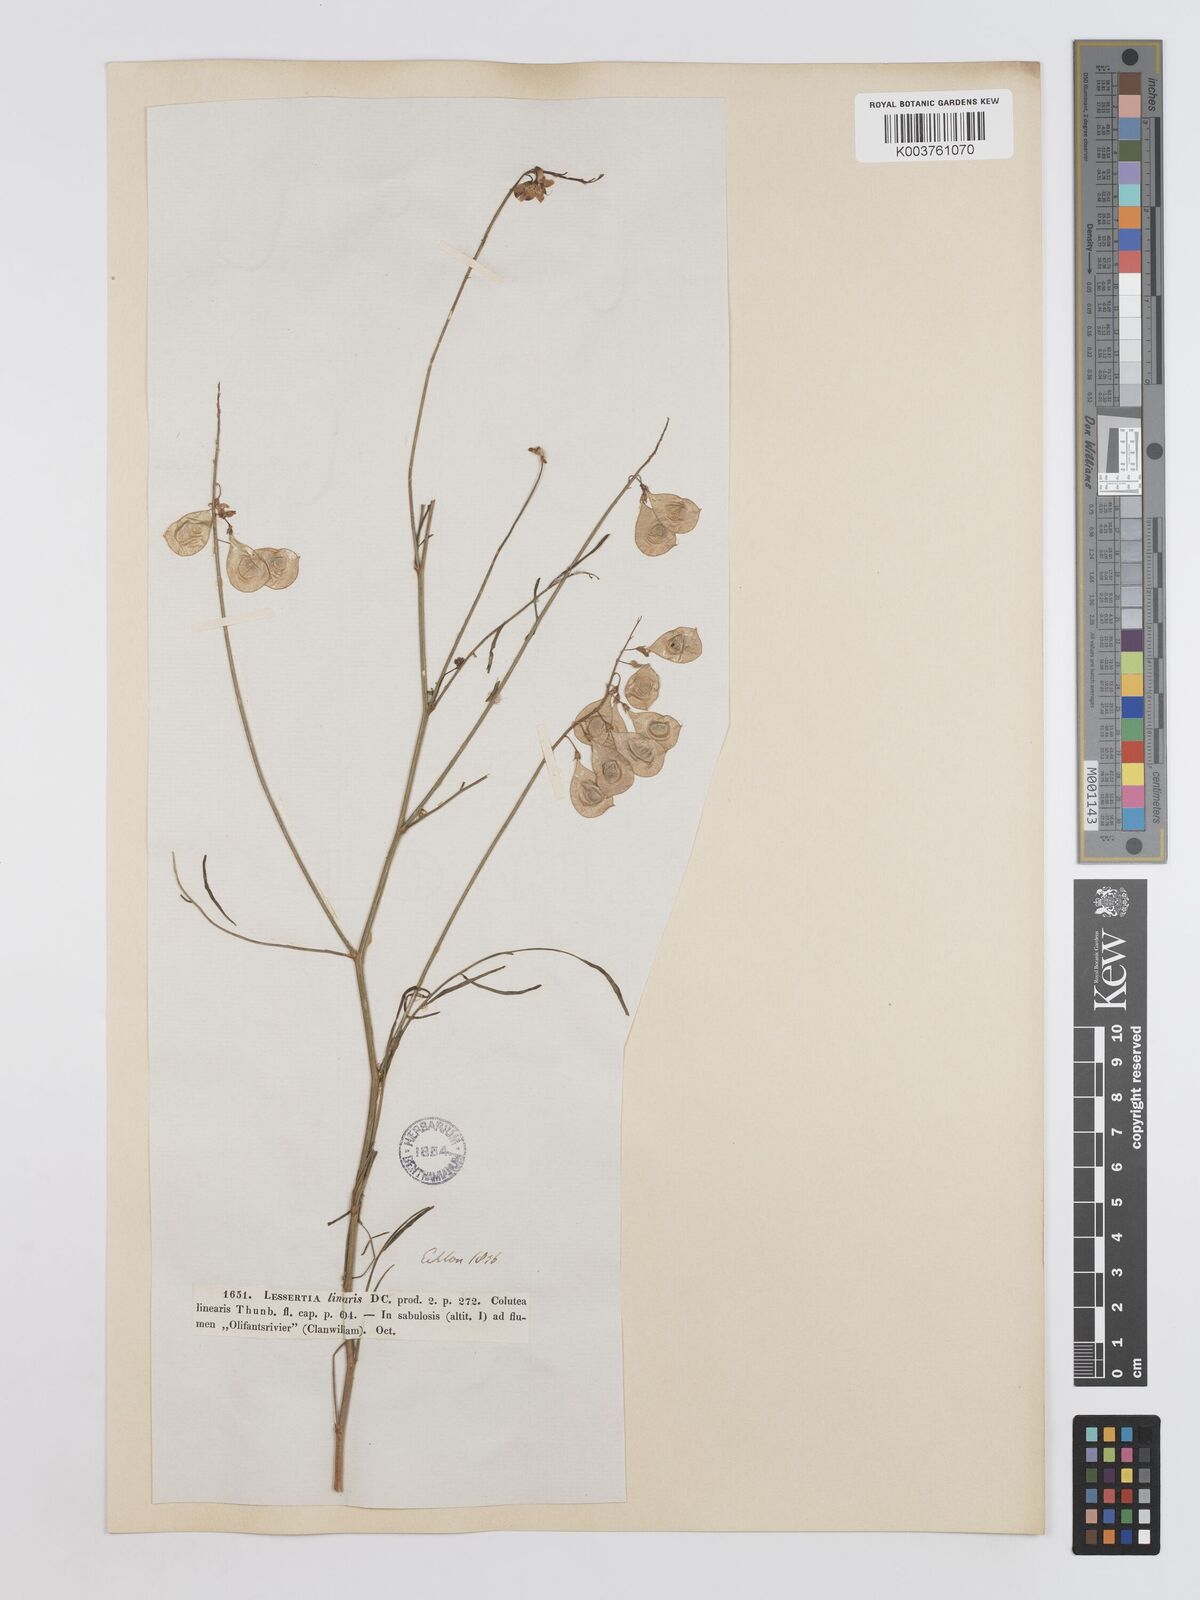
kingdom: Plantae
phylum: Tracheophyta
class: Magnoliopsida
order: Fabales
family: Fabaceae
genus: Lessertia
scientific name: Lessertia herbacea
